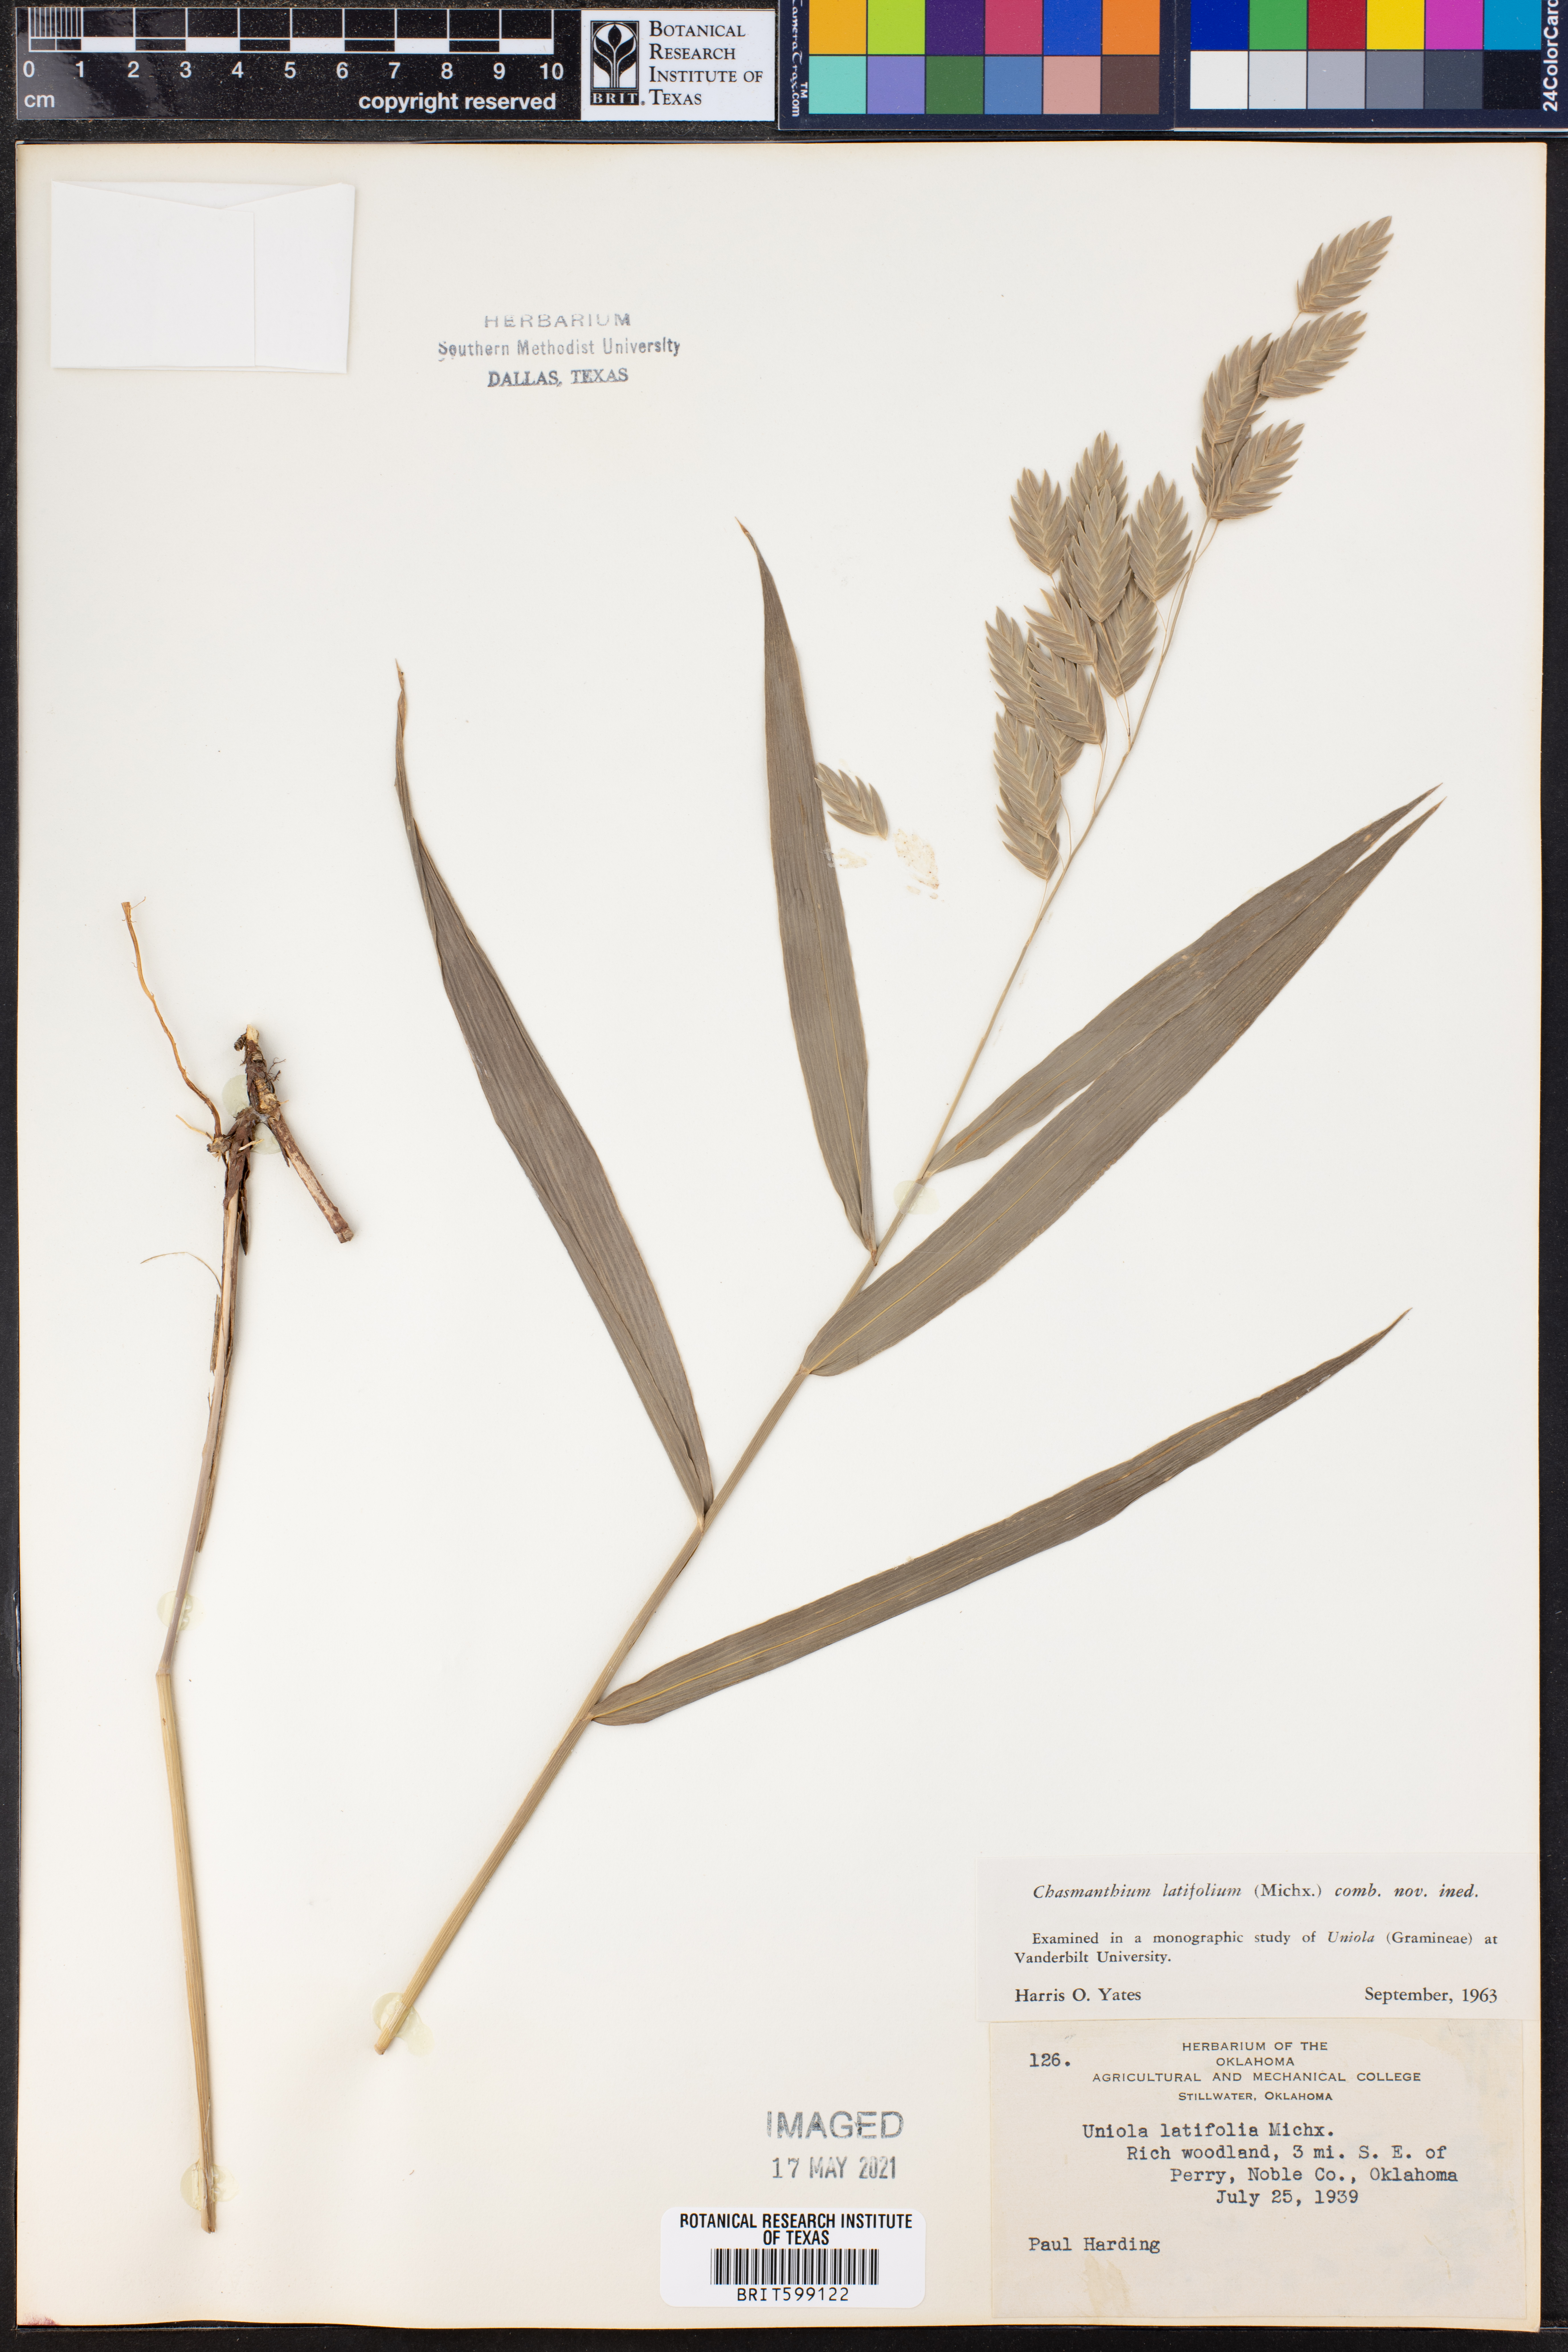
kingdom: Plantae
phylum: Tracheophyta
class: Liliopsida
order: Poales
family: Poaceae
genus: Chasmanthium
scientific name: Chasmanthium latifolium
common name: Broad-leaved chasmanthium
